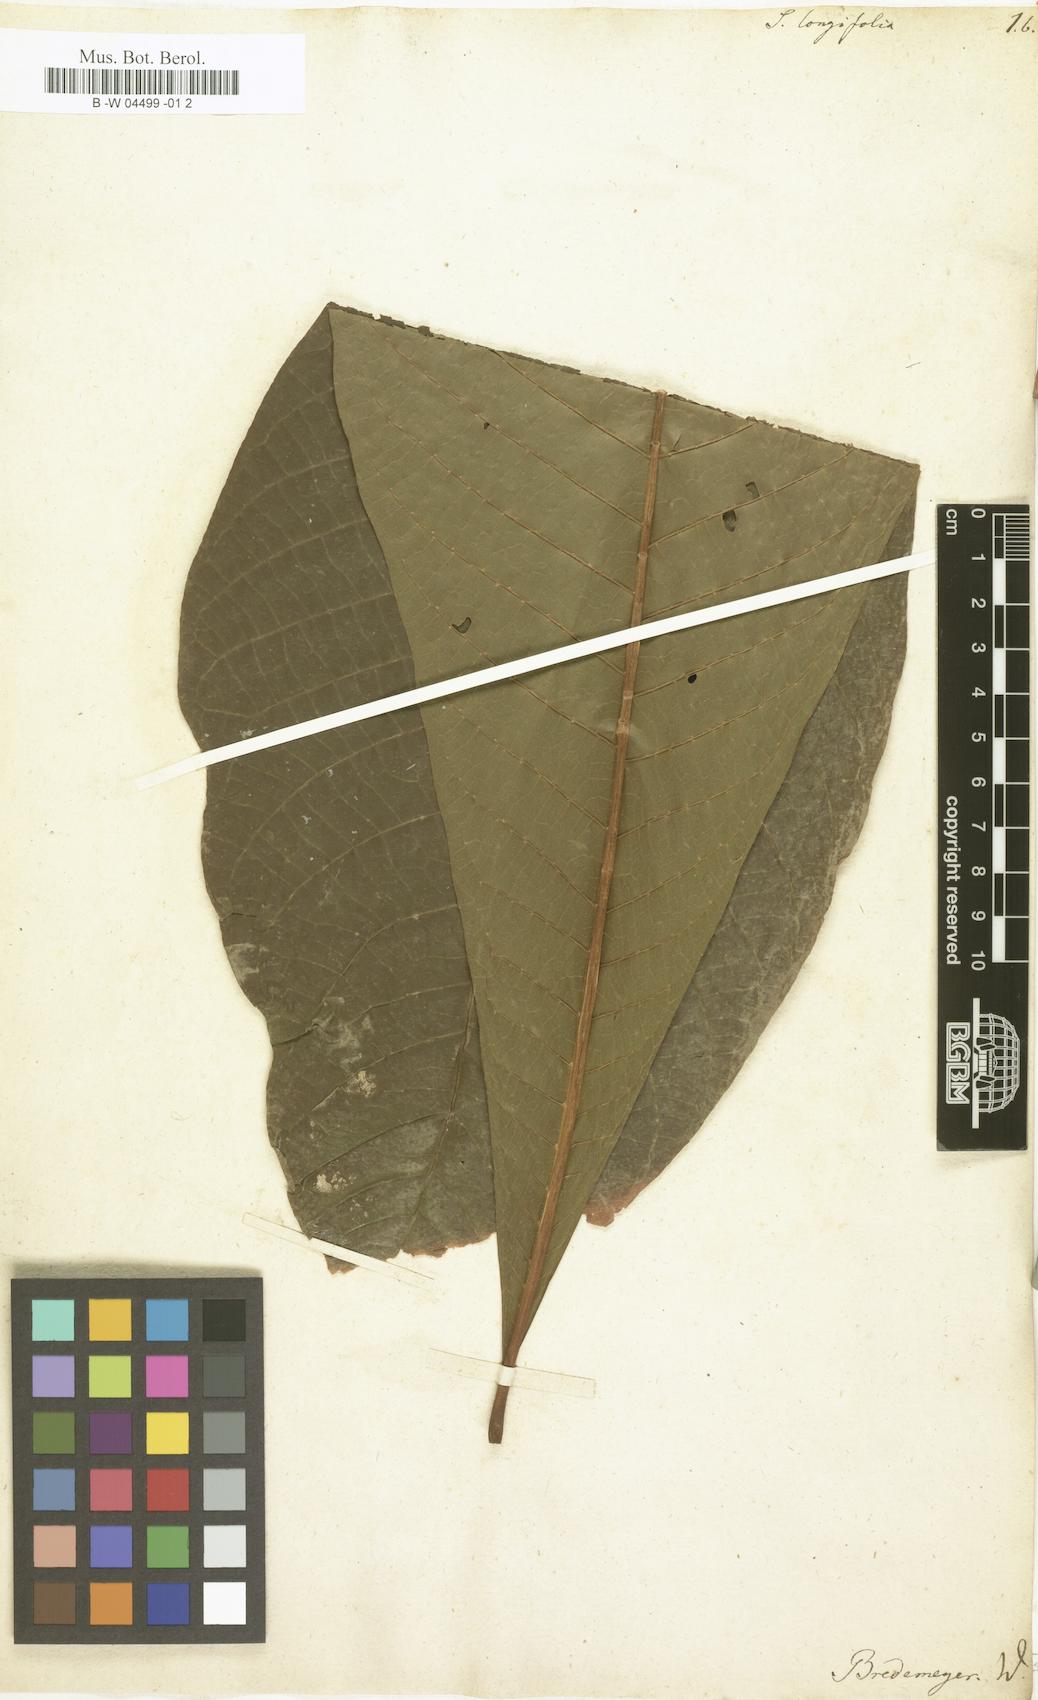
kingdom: Plantae
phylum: Tracheophyta
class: Magnoliopsida
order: Gentianales
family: Rubiaceae
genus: Simira
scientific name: Simira longifolia
